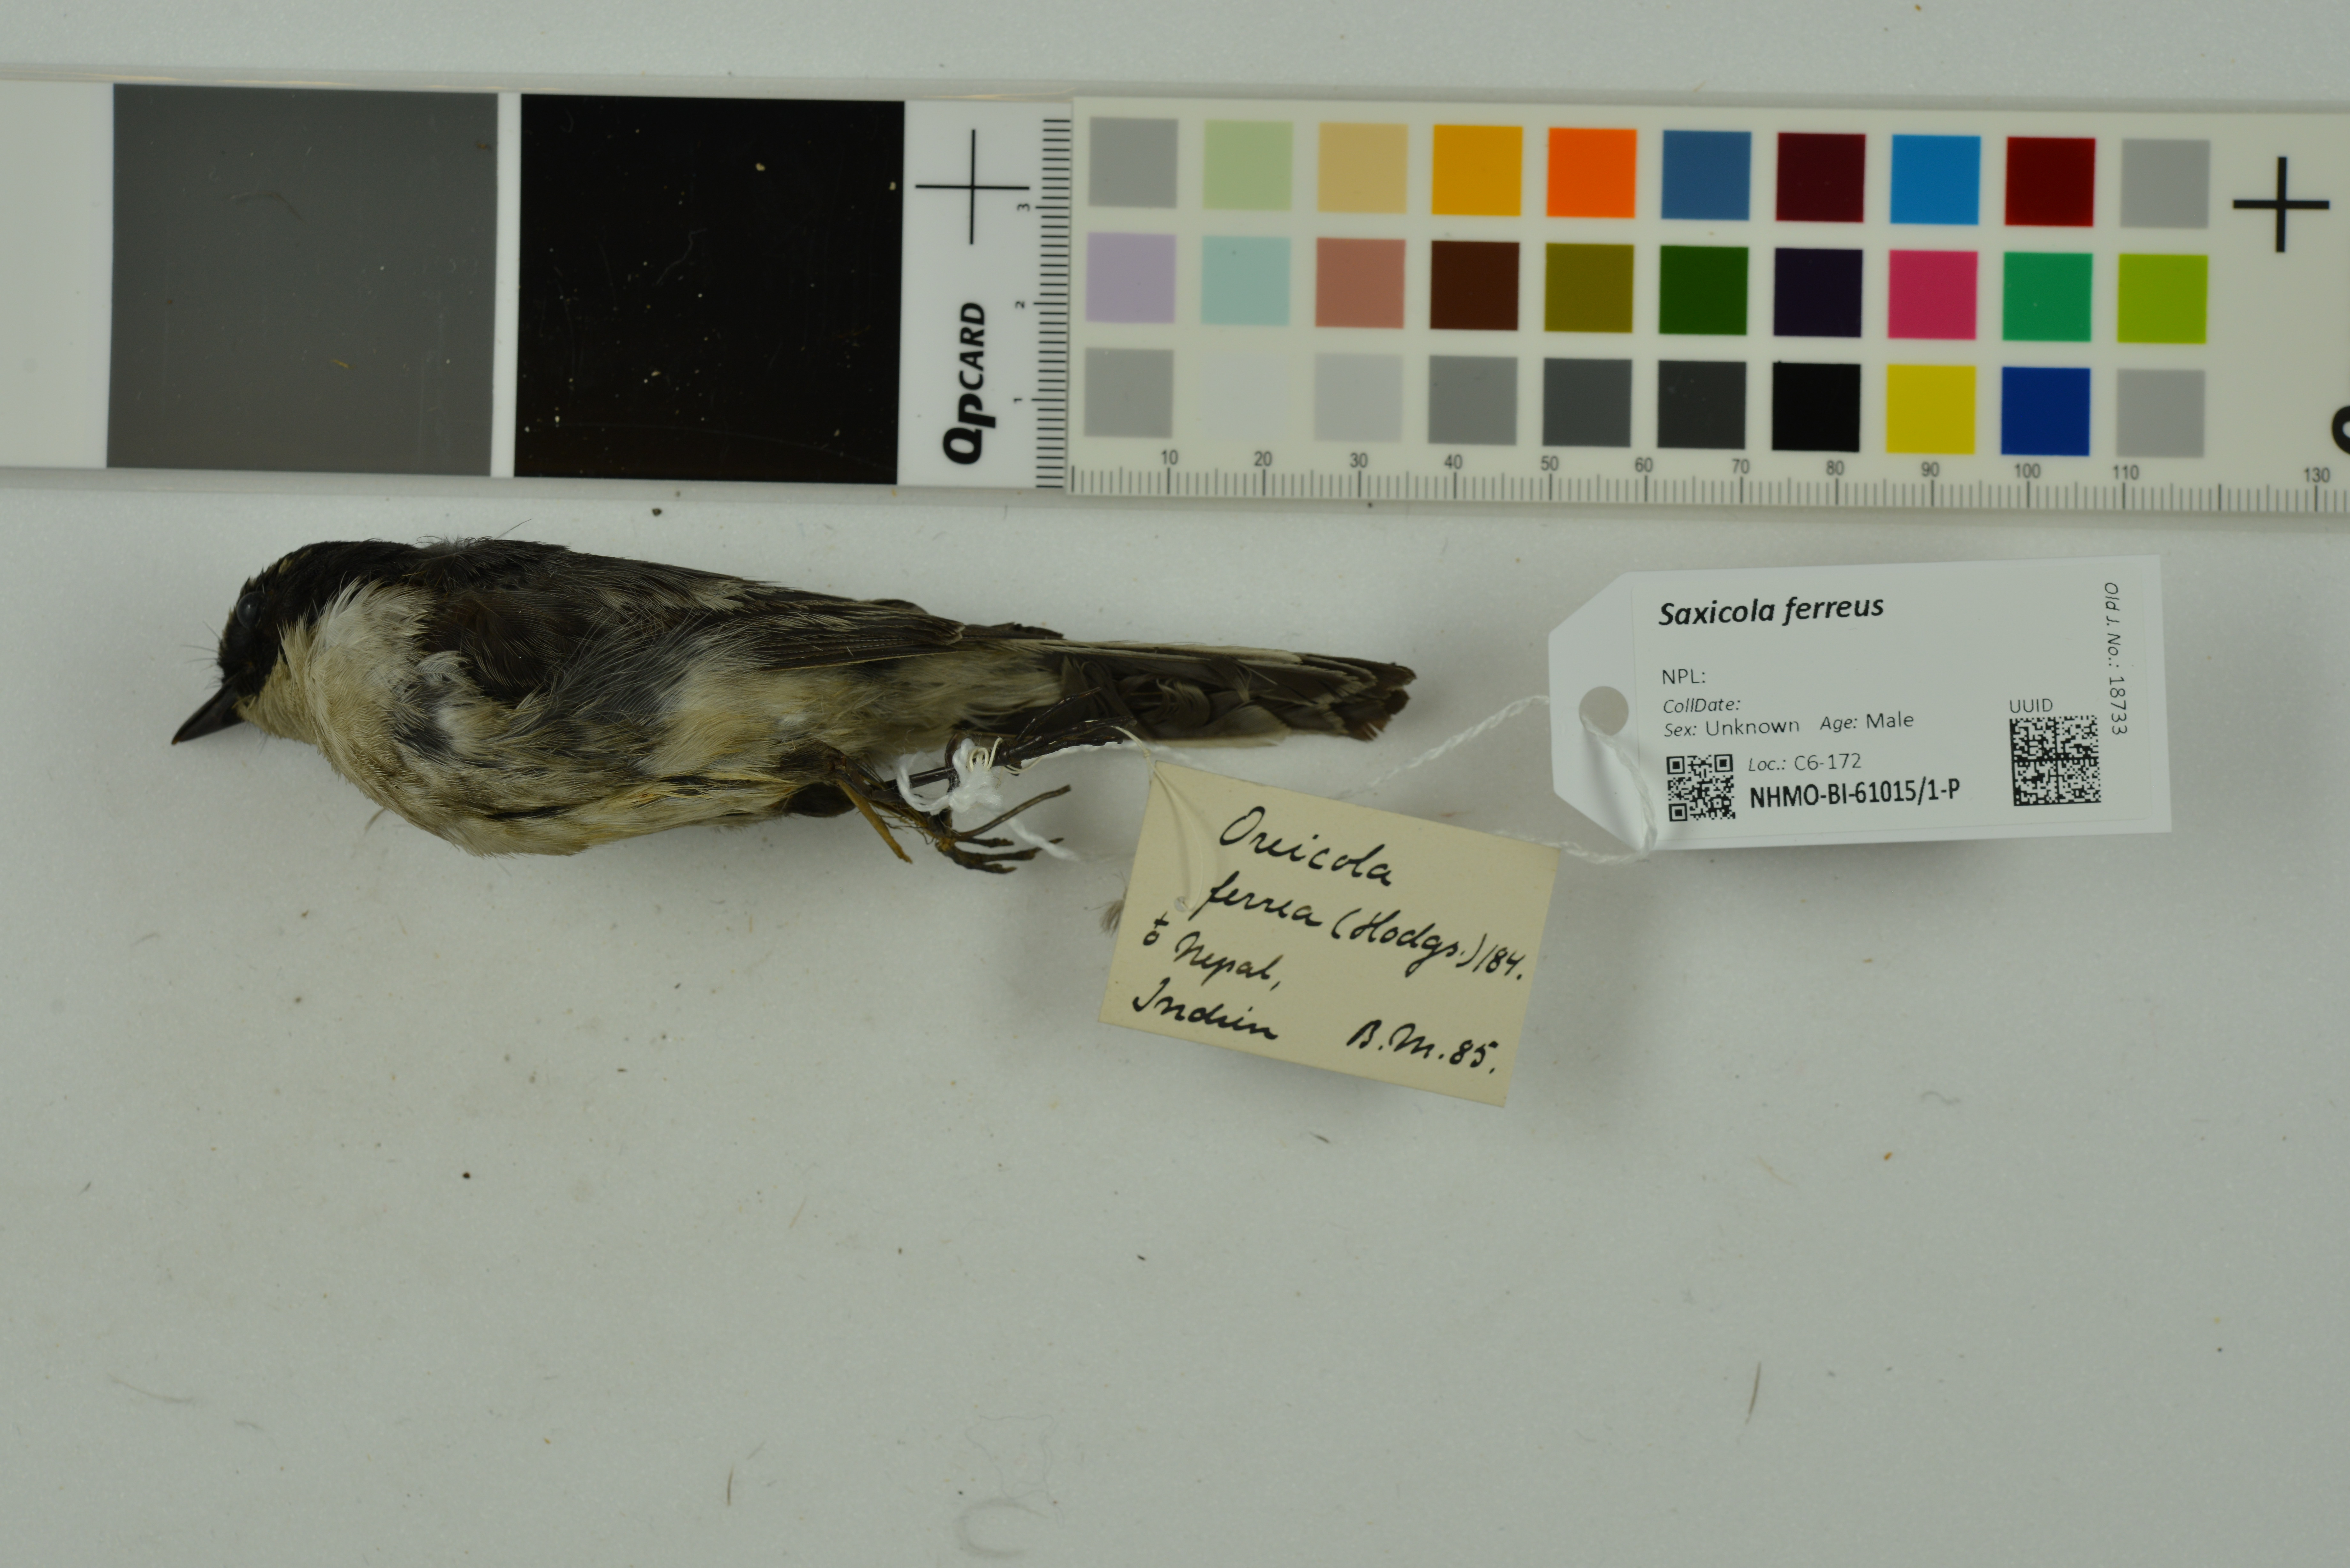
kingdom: Animalia
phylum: Chordata
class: Aves
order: Passeriformes
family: Muscicapidae
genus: Saxicola
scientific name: Saxicola ferreus
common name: Grey bush chat
